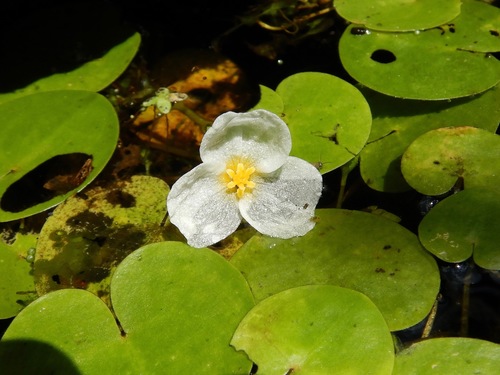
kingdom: Plantae
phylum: Tracheophyta
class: Liliopsida
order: Alismatales
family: Hydrocharitaceae
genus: Hydrocharis
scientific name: Hydrocharis morsus-ranae
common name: European frog-bit
